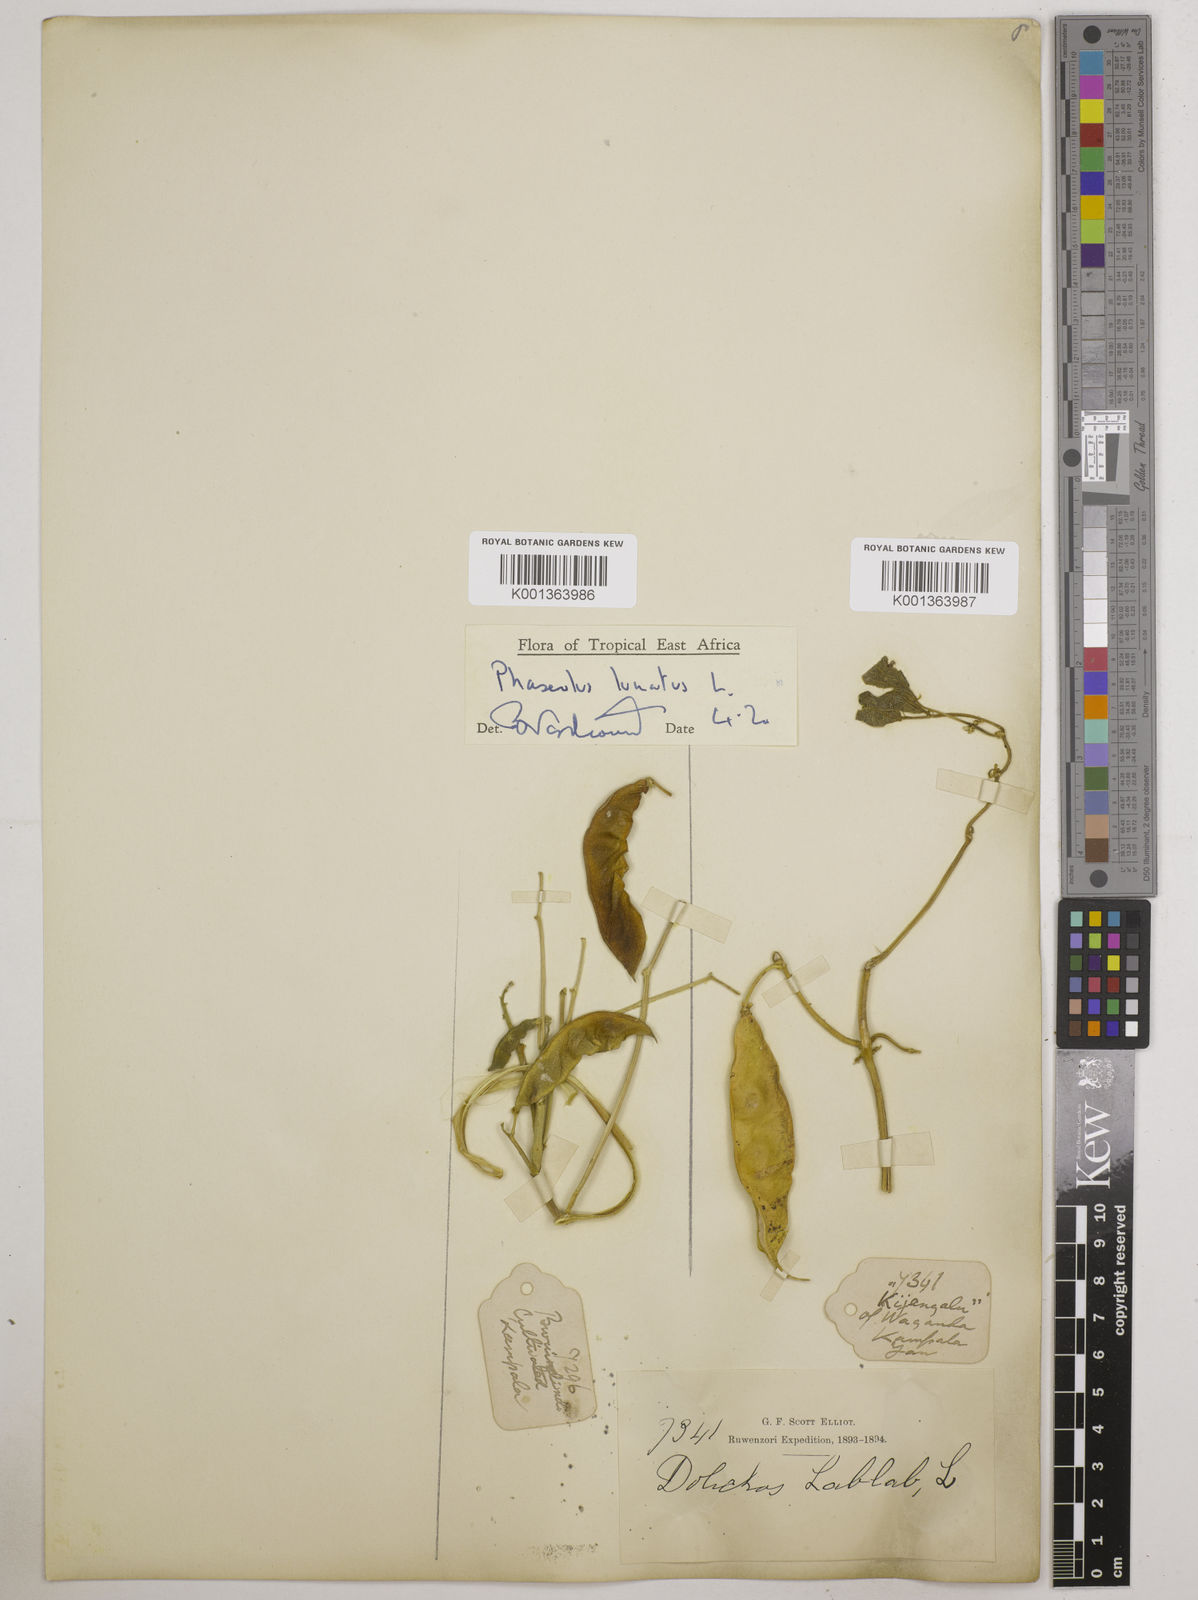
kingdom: Plantae
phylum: Tracheophyta
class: Magnoliopsida
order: Fabales
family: Fabaceae
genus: Phaseolus
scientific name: Phaseolus lunatus
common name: Sieva bean
